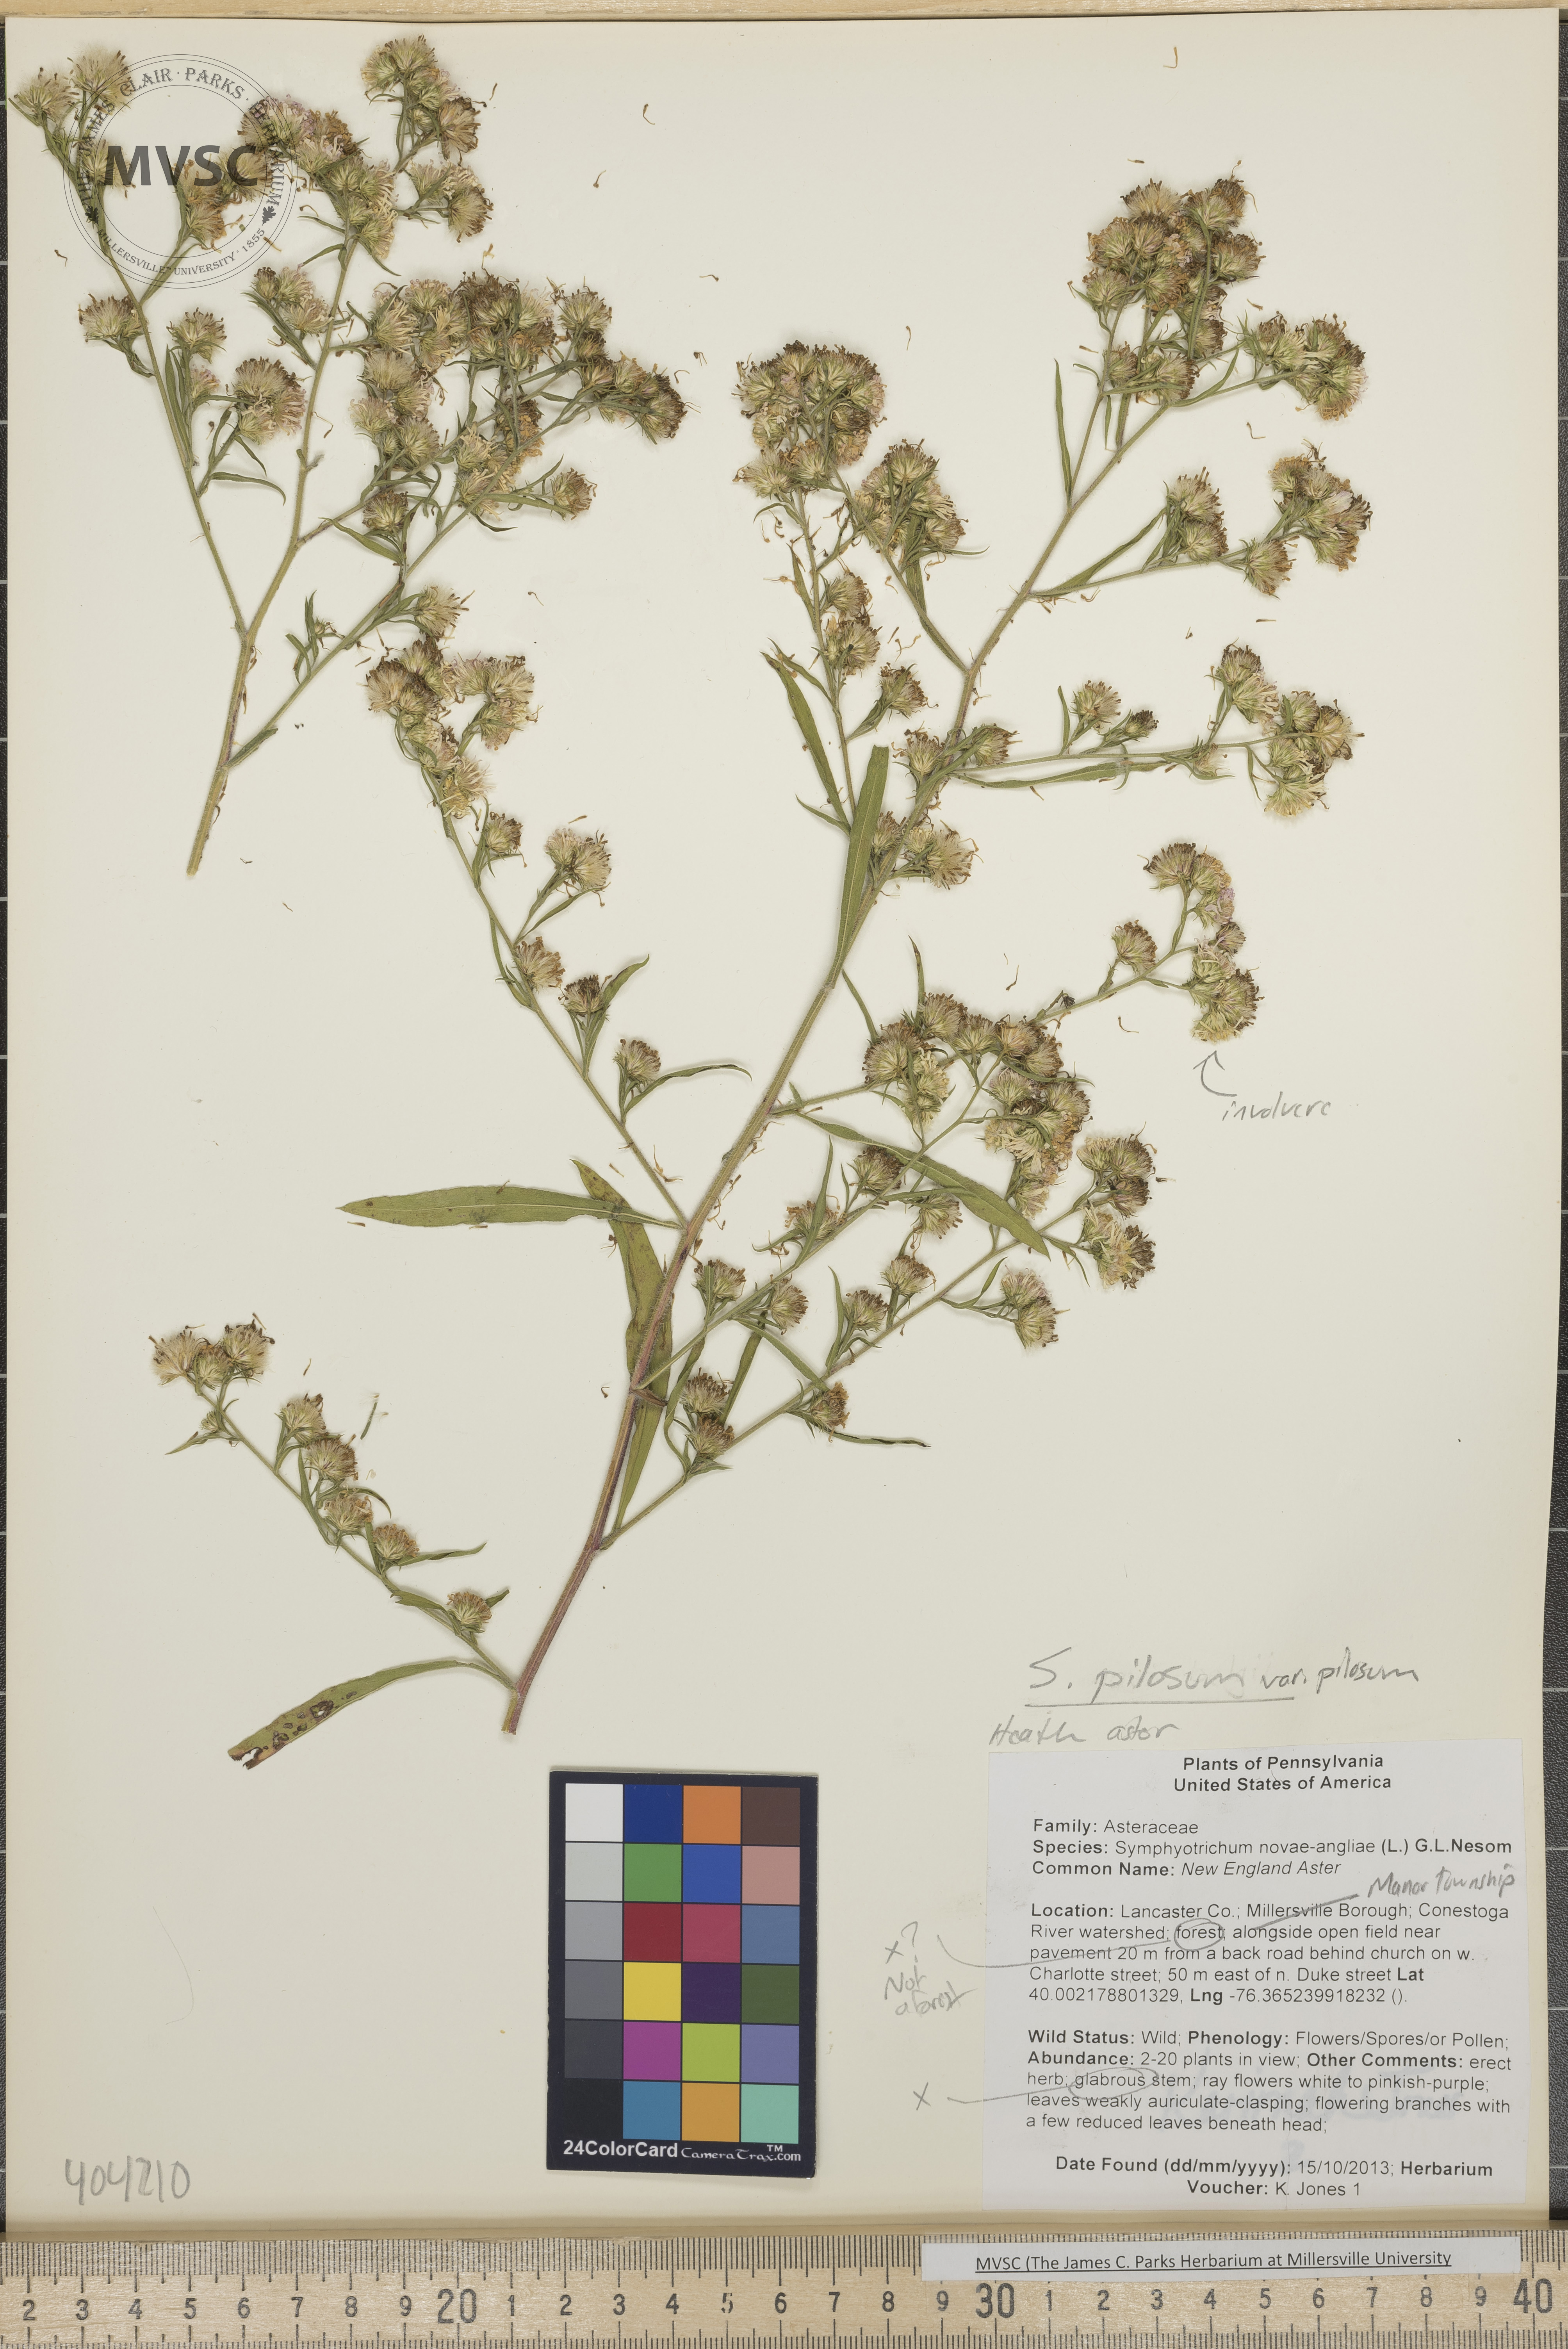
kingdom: Plantae
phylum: Tracheophyta
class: Magnoliopsida
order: Asterales
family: Asteraceae
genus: Symphyotrichum
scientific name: Symphyotrichum pilosum
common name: Heath Aster
